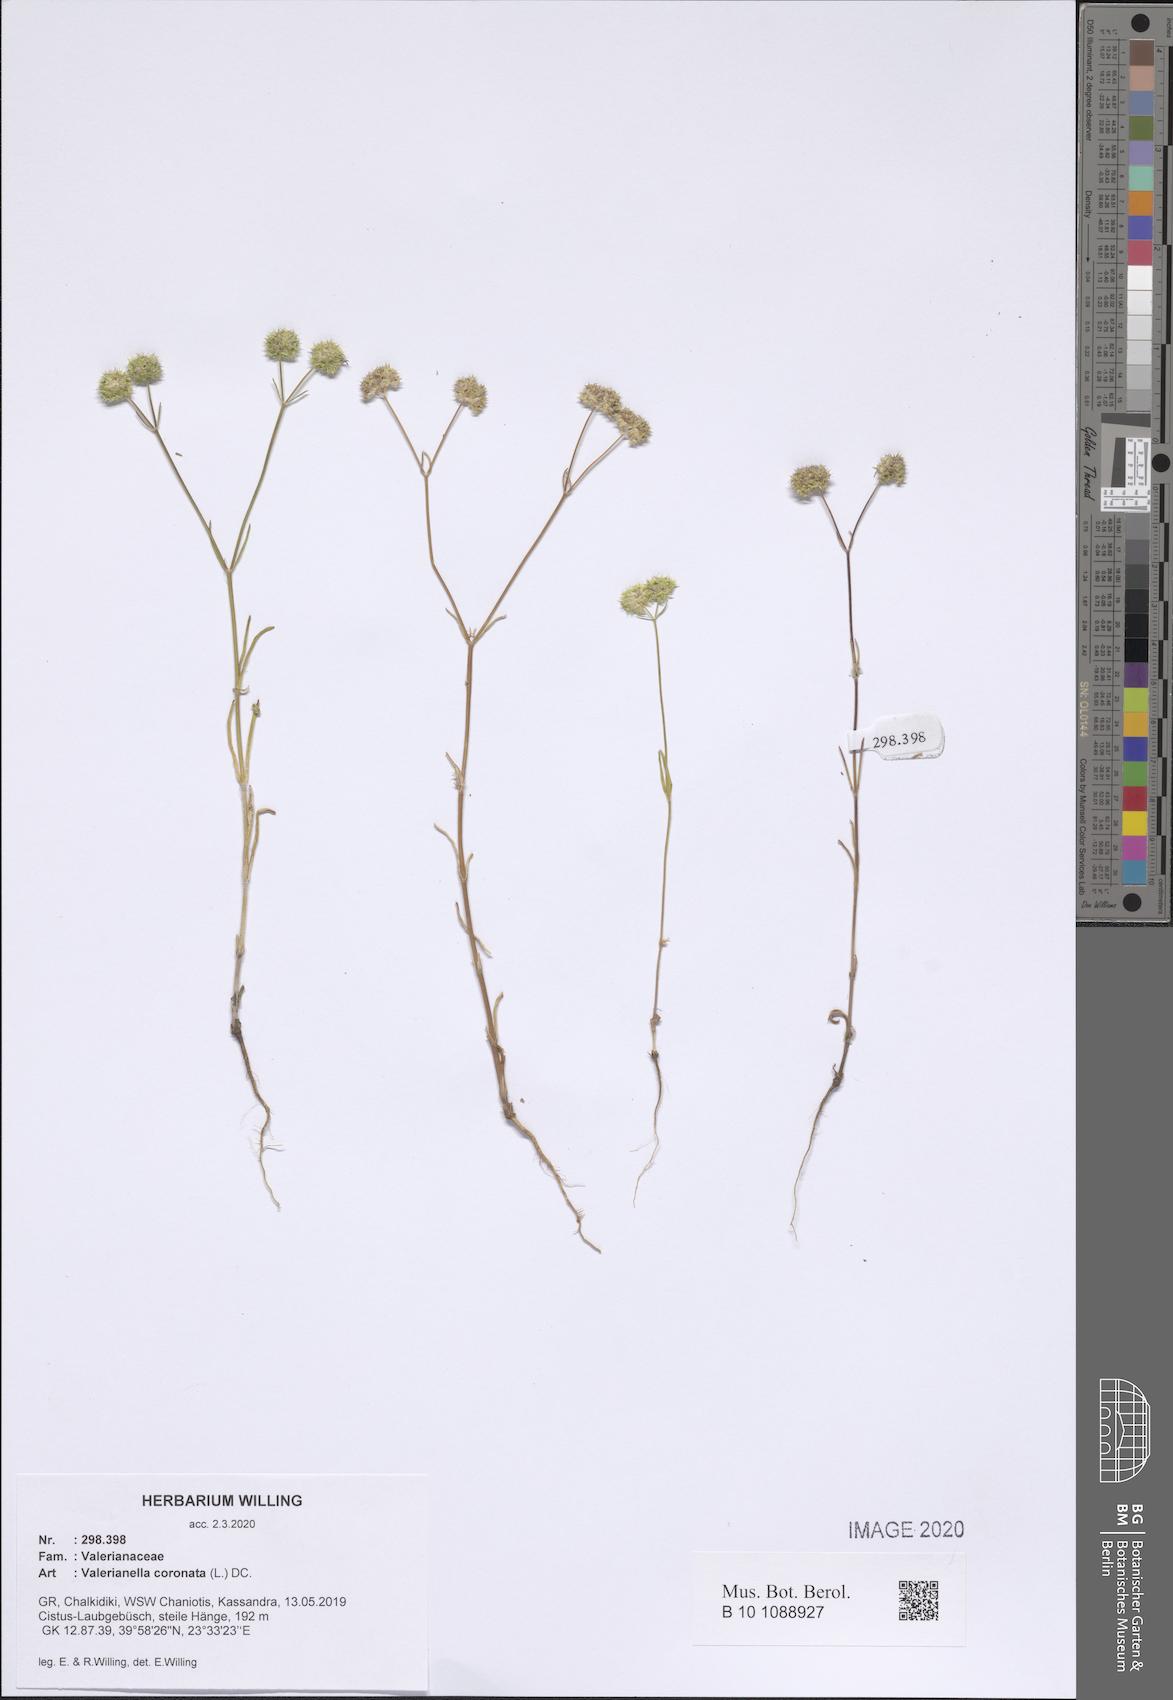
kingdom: Plantae
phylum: Tracheophyta
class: Magnoliopsida
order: Dipsacales
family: Caprifoliaceae
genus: Valerianella
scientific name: Valerianella coronata
